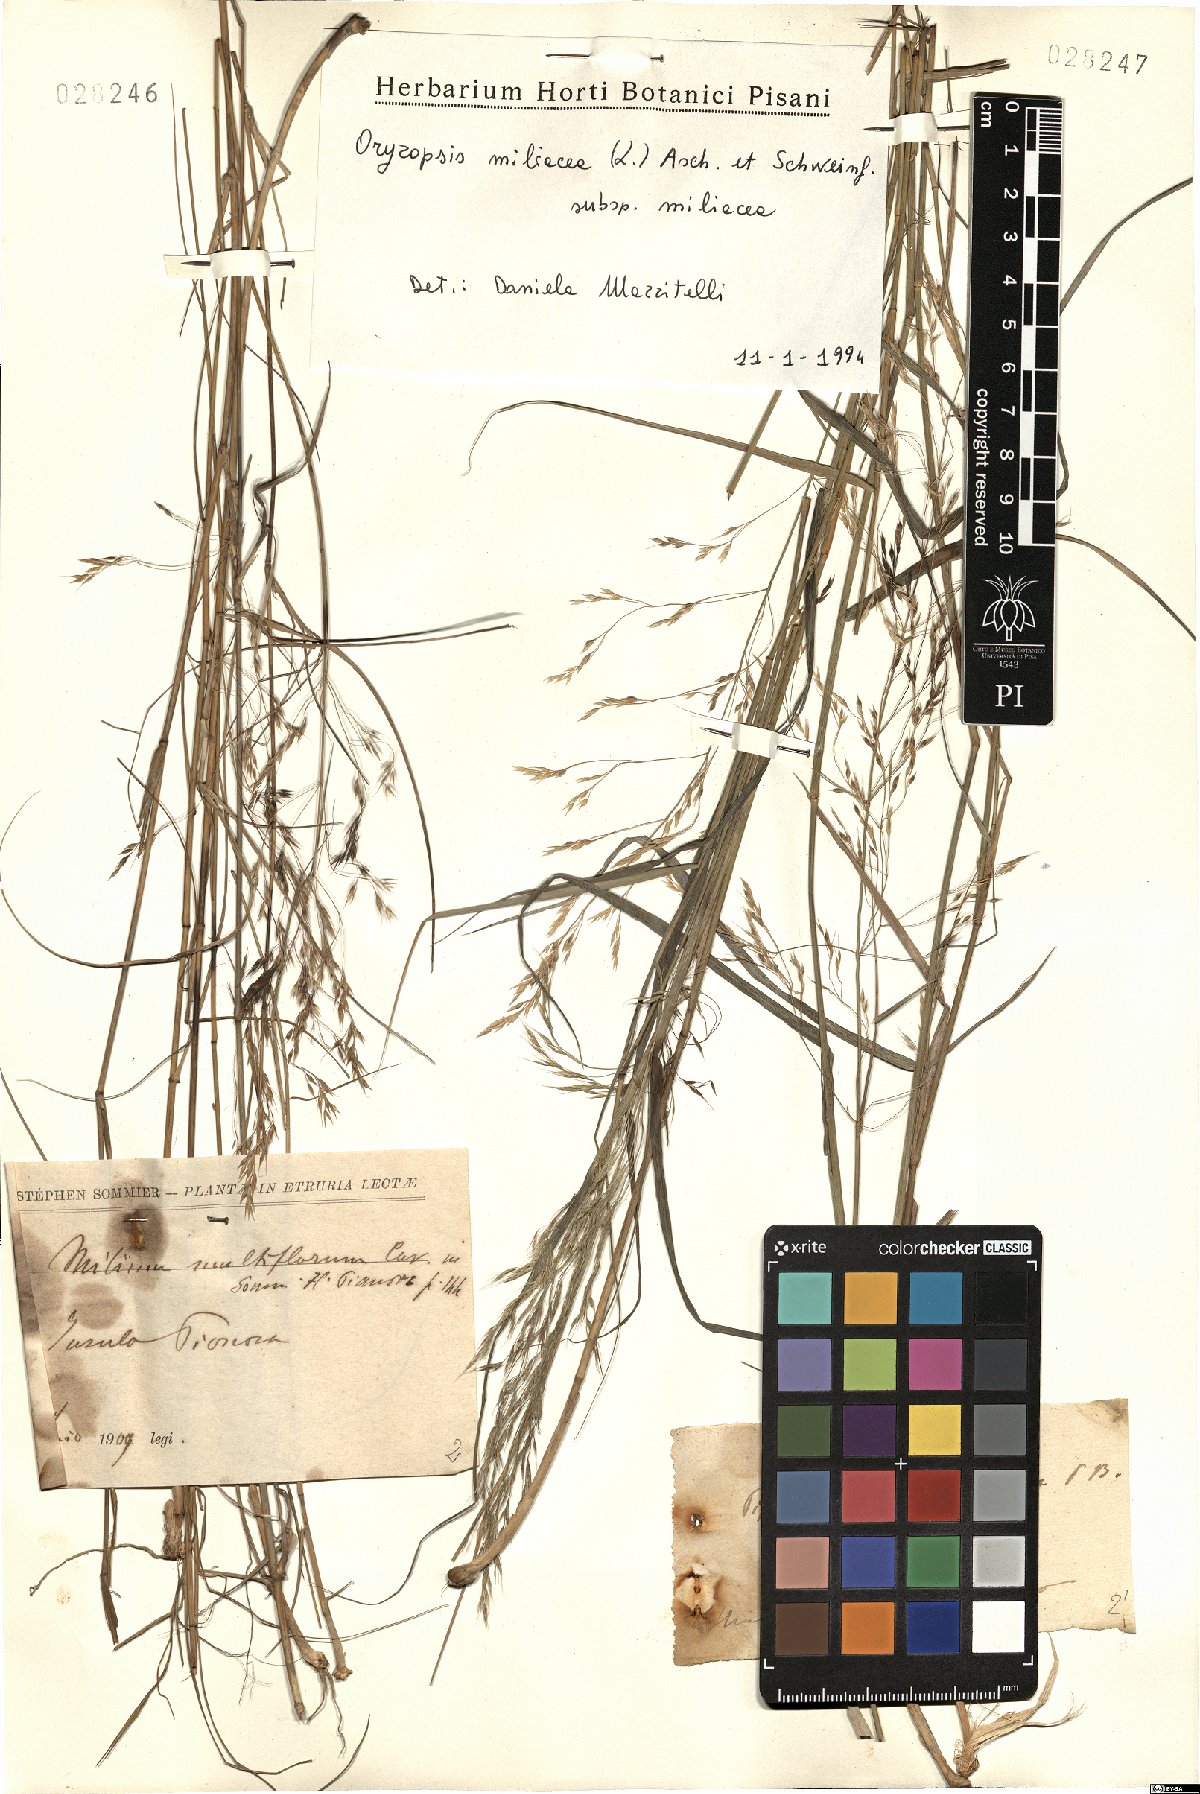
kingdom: Plantae
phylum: Tracheophyta
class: Liliopsida
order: Poales
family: Poaceae
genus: Oryzopsis
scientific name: Oryzopsis miliacea
